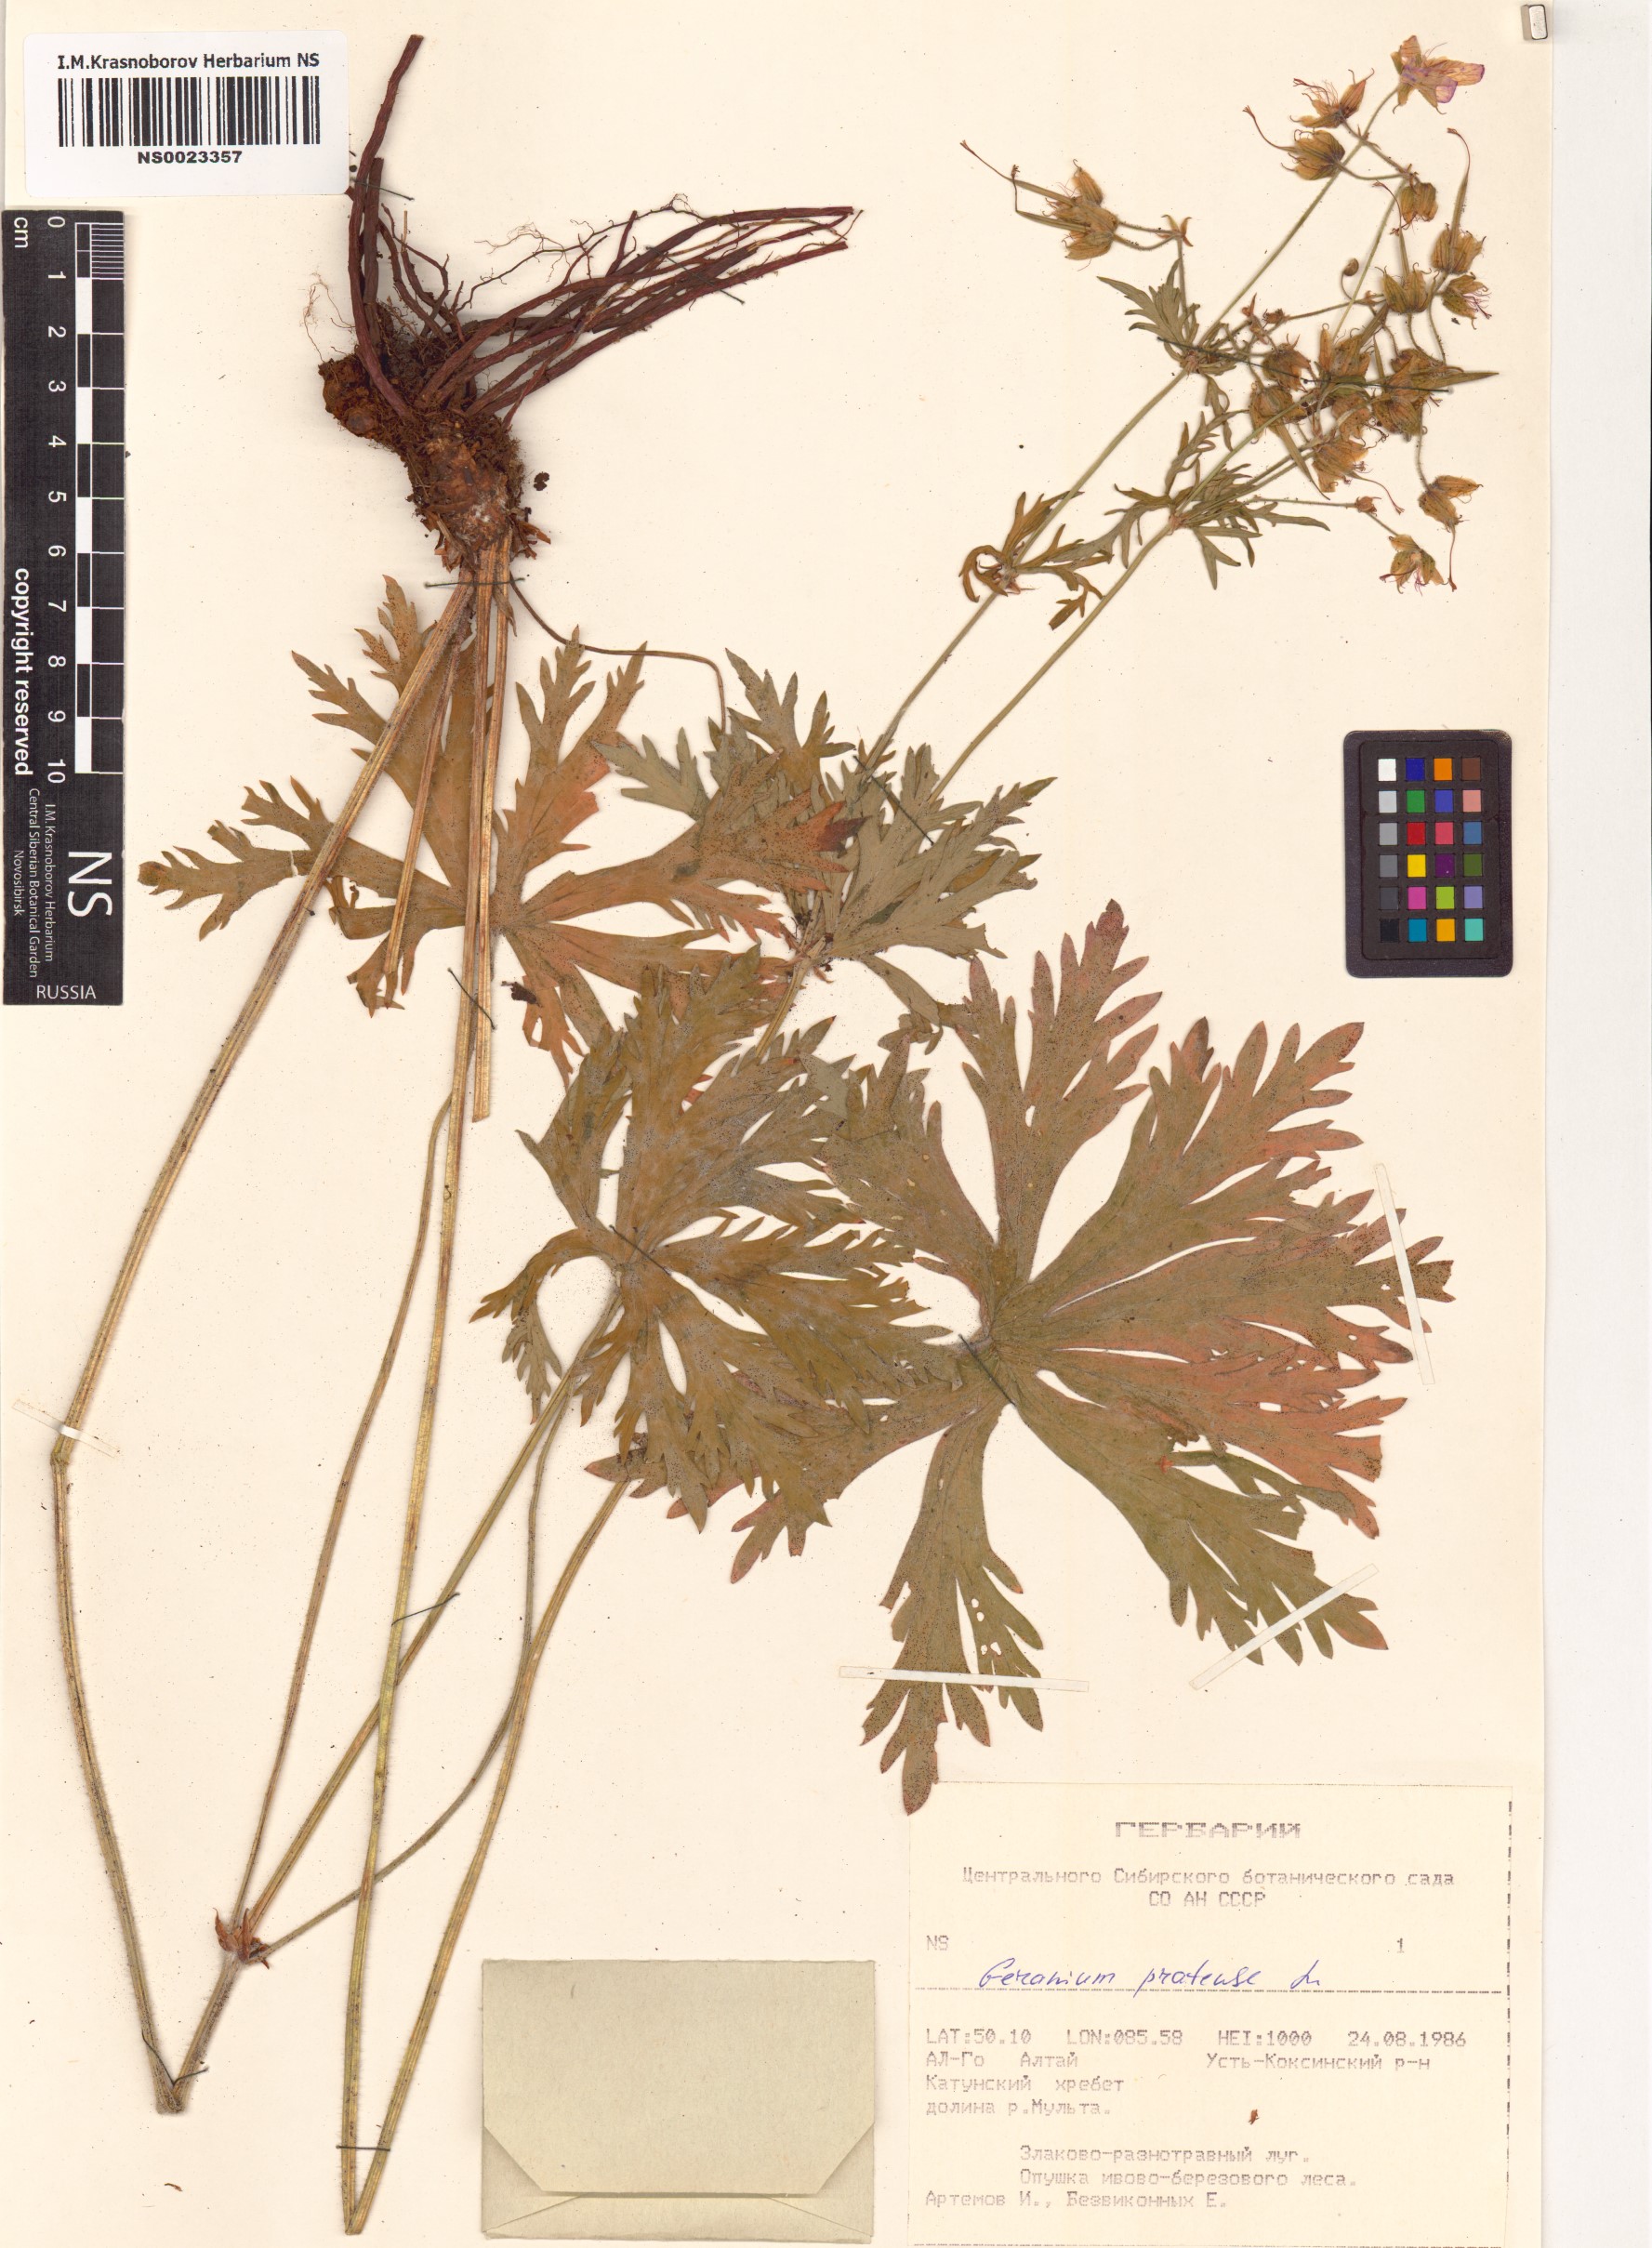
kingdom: Plantae
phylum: Tracheophyta
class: Magnoliopsida
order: Geraniales
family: Geraniaceae
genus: Geranium
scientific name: Geranium pratense
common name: Meadow crane's-bill
